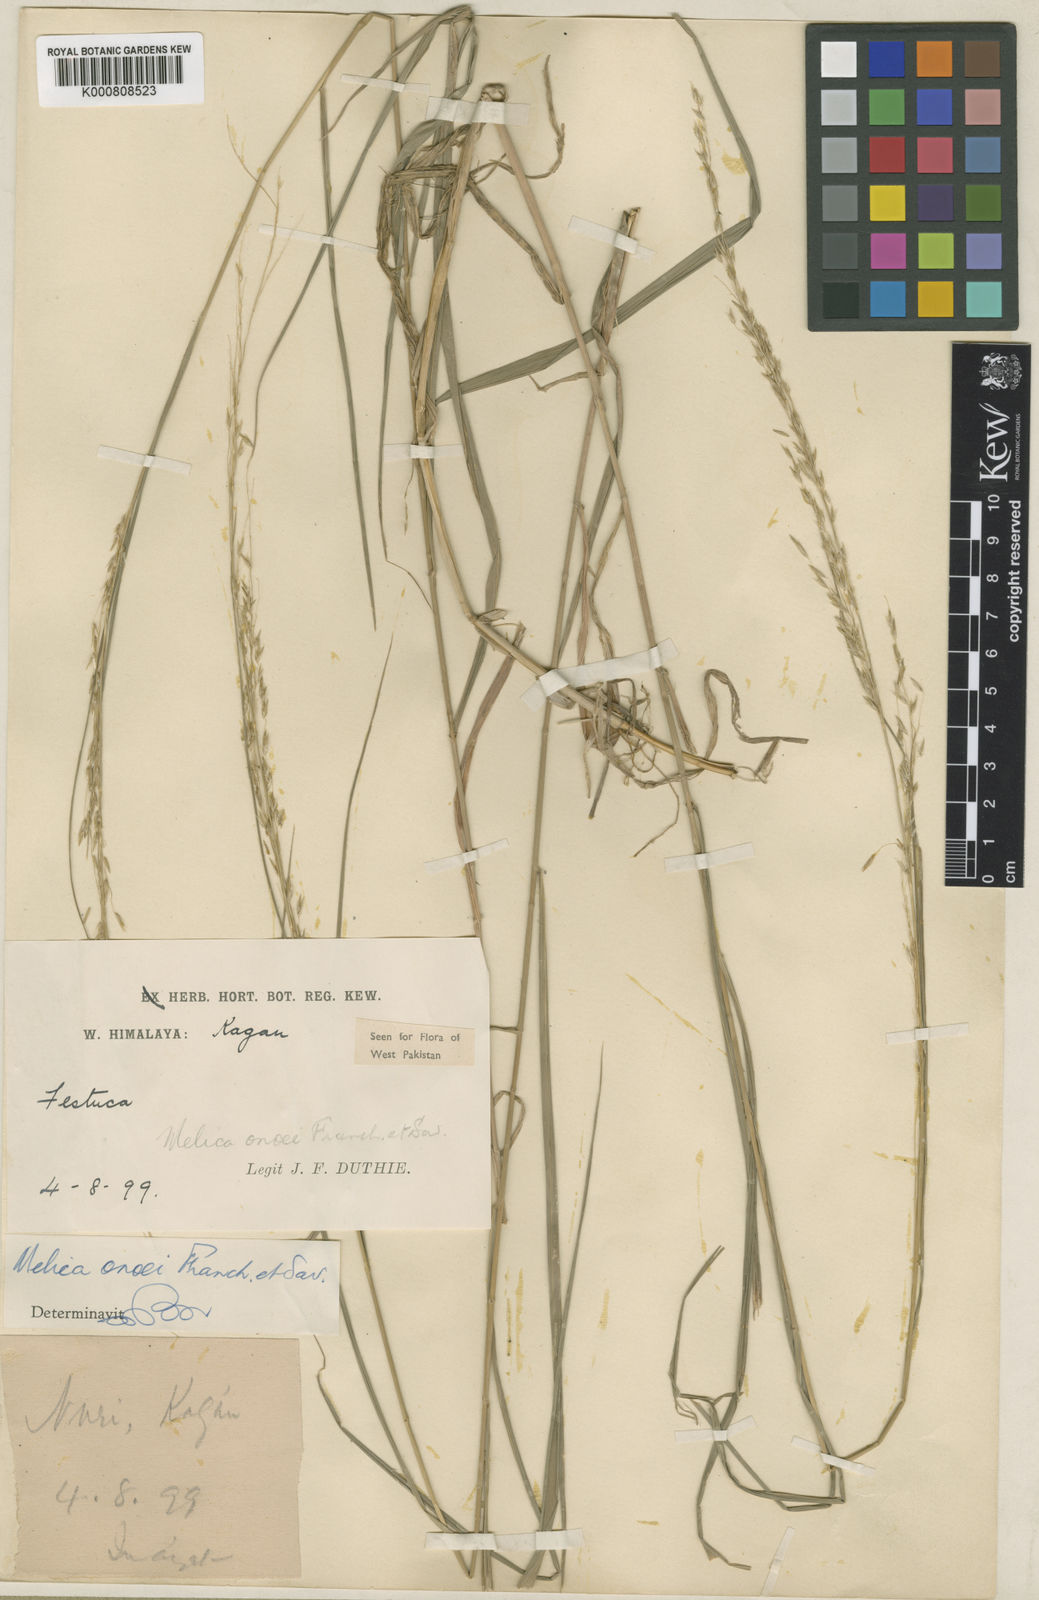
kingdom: Plantae
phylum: Tracheophyta
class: Liliopsida
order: Poales
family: Poaceae
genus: Melica
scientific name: Melica onoei
